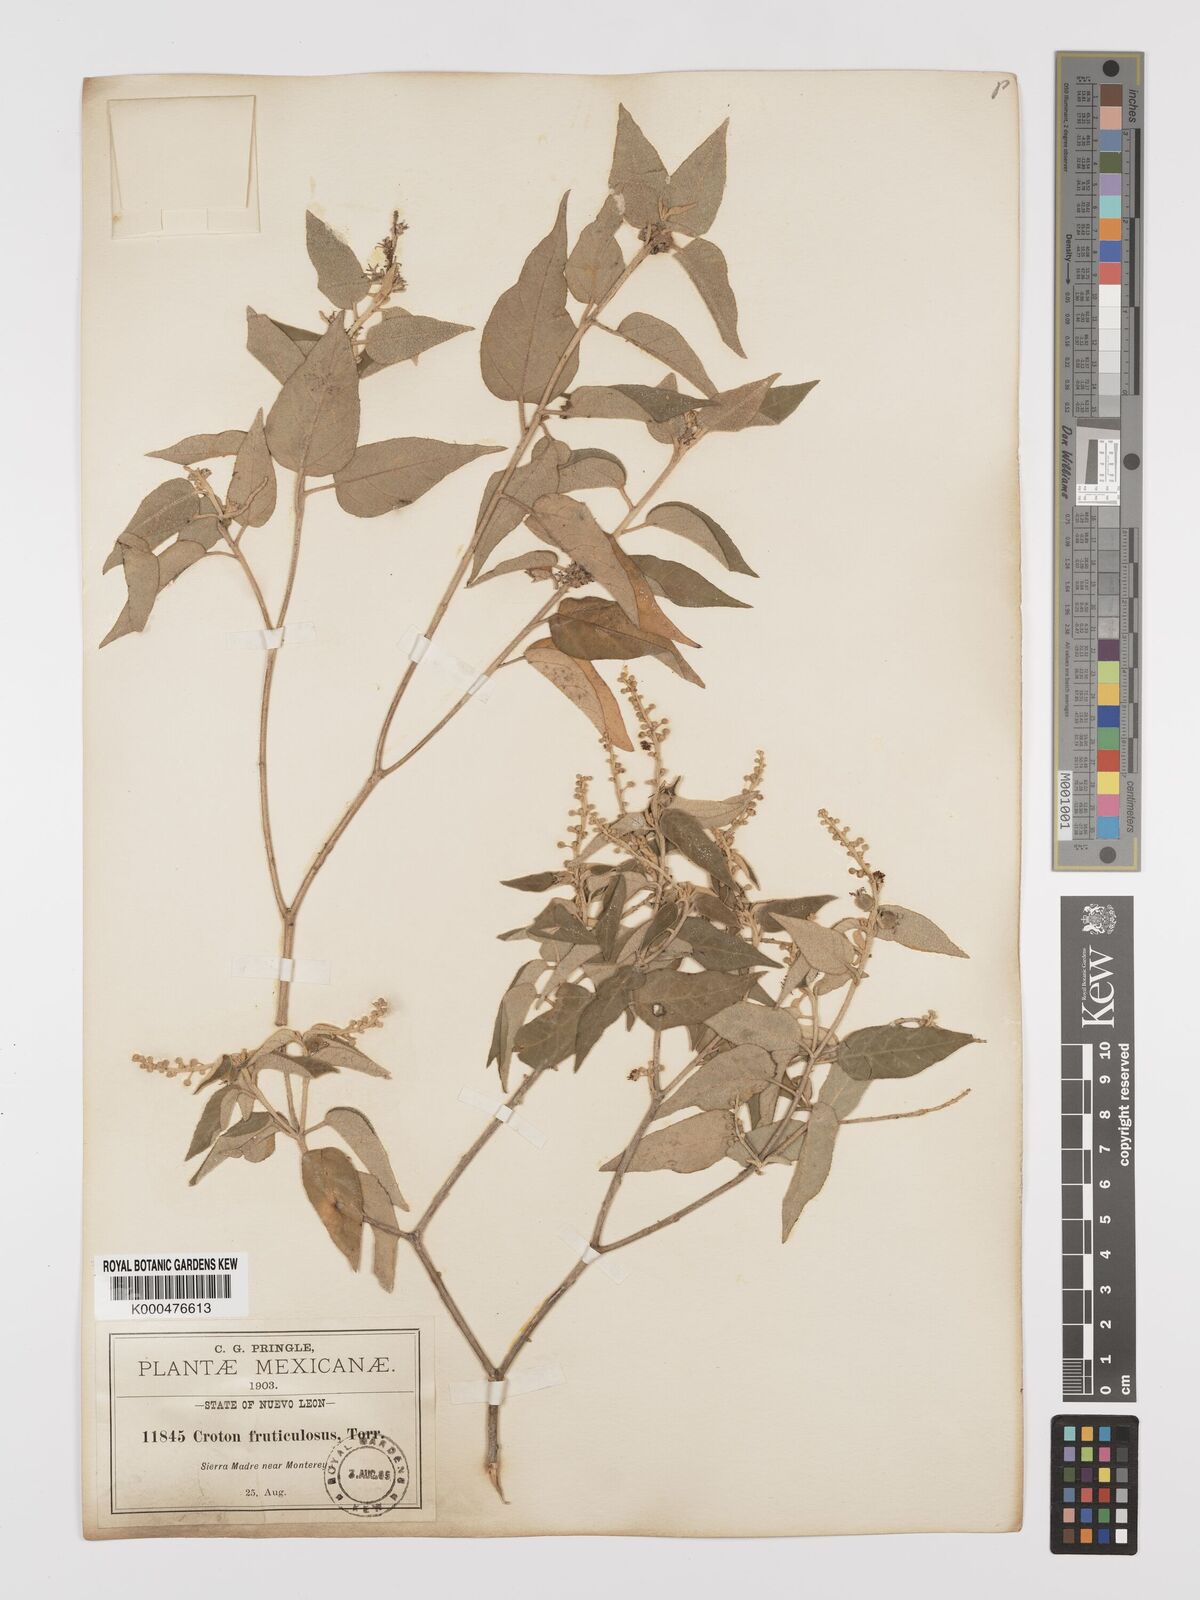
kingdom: Plantae
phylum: Tracheophyta
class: Magnoliopsida
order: Malpighiales
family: Euphorbiaceae
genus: Croton
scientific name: Croton fruticulosus
